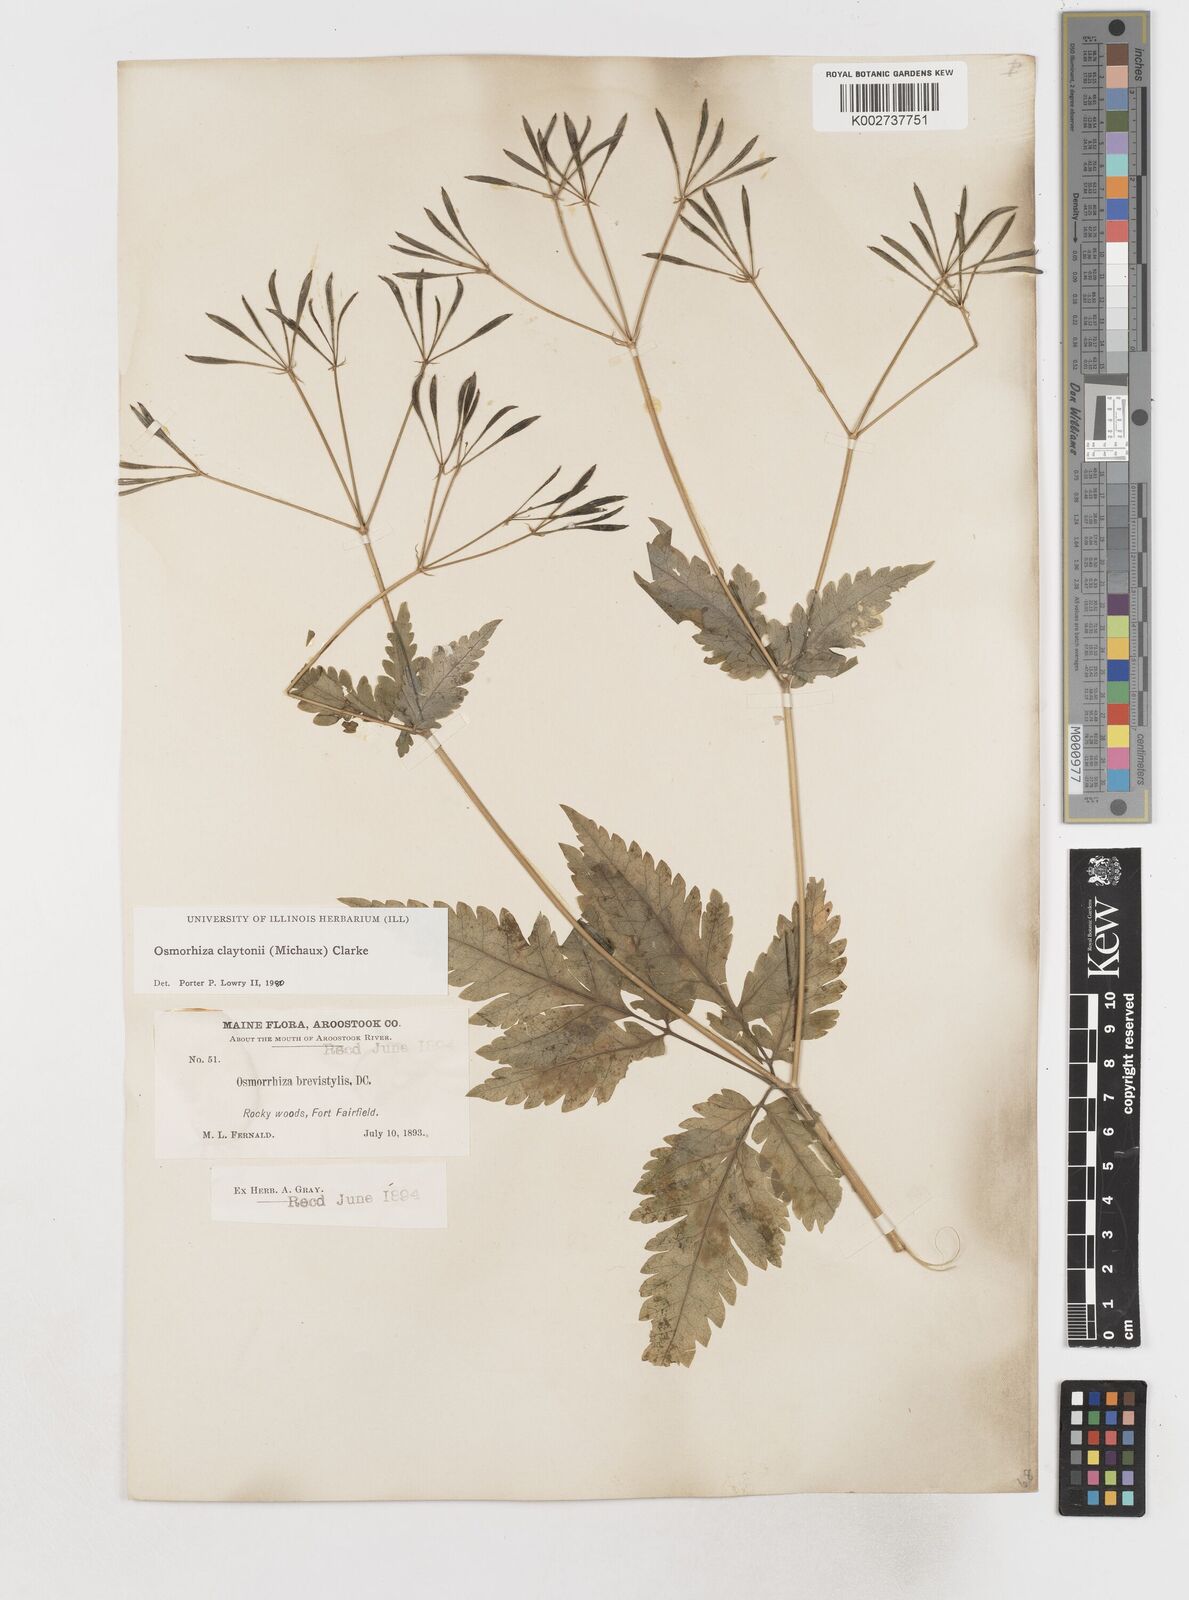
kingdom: Plantae
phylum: Tracheophyta
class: Magnoliopsida
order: Apiales
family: Apiaceae
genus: Osmorhiza
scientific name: Osmorhiza claytonii
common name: Hairy sweet cicely
